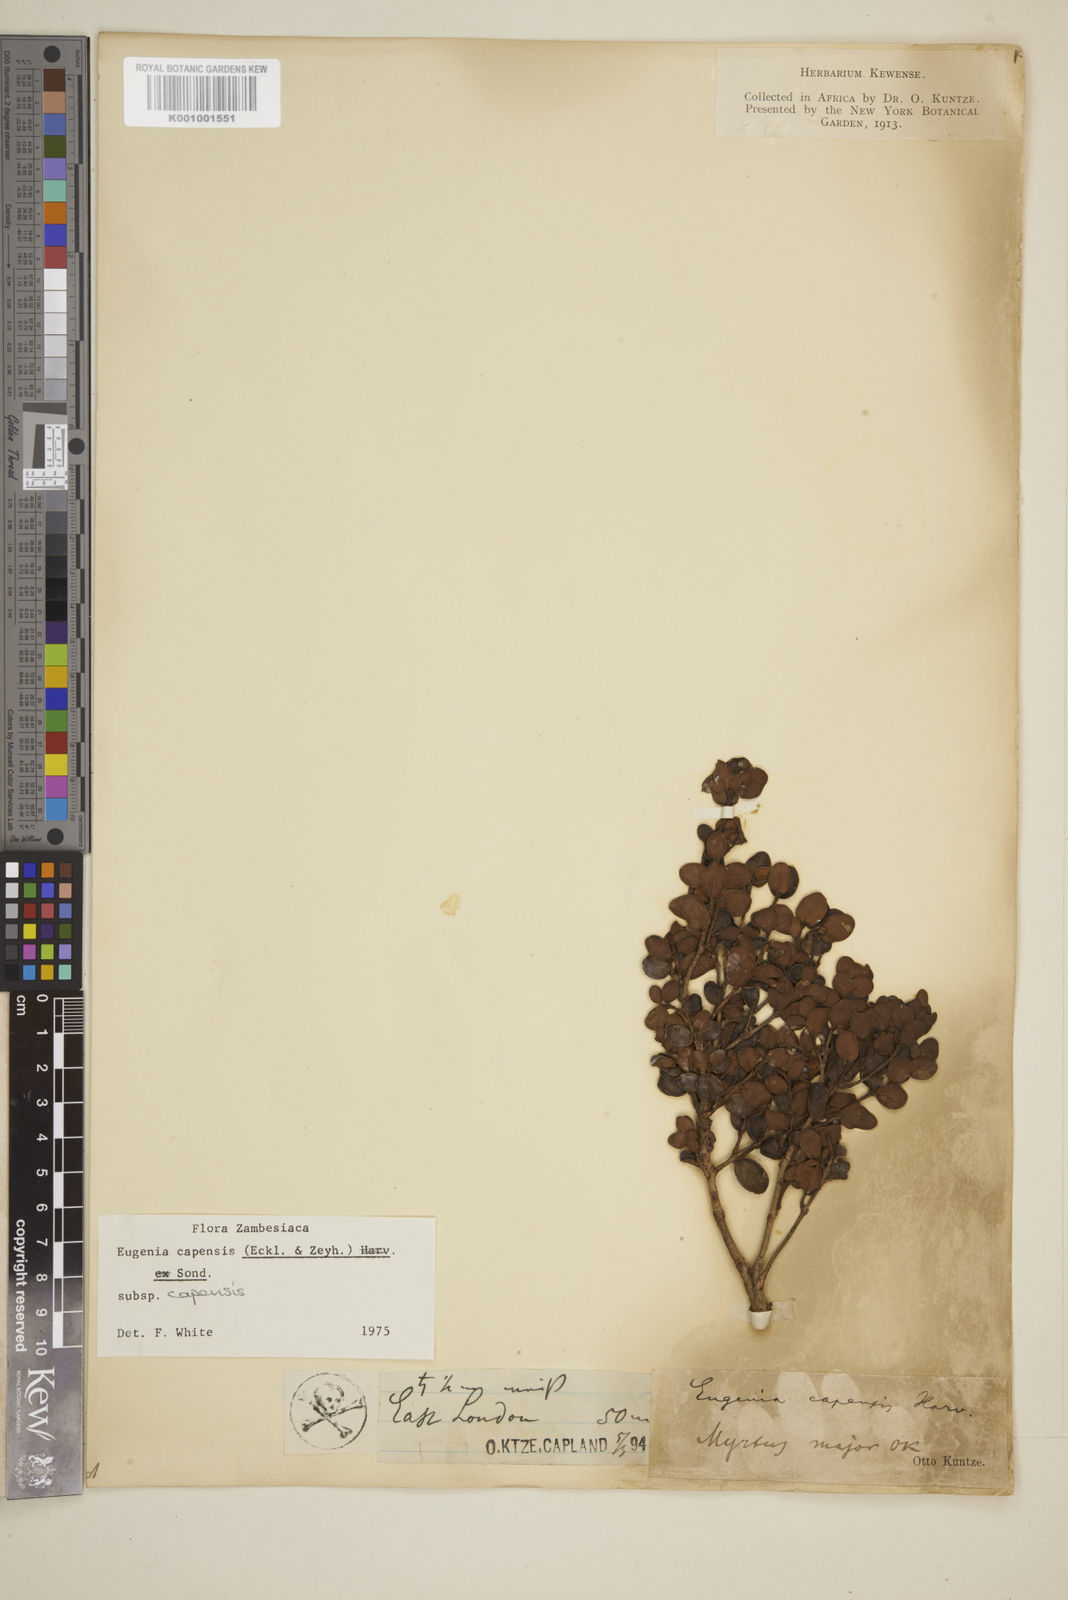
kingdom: Plantae
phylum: Tracheophyta
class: Magnoliopsida
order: Myrtales
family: Myrtaceae
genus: Eugenia
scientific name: Eugenia capensis
